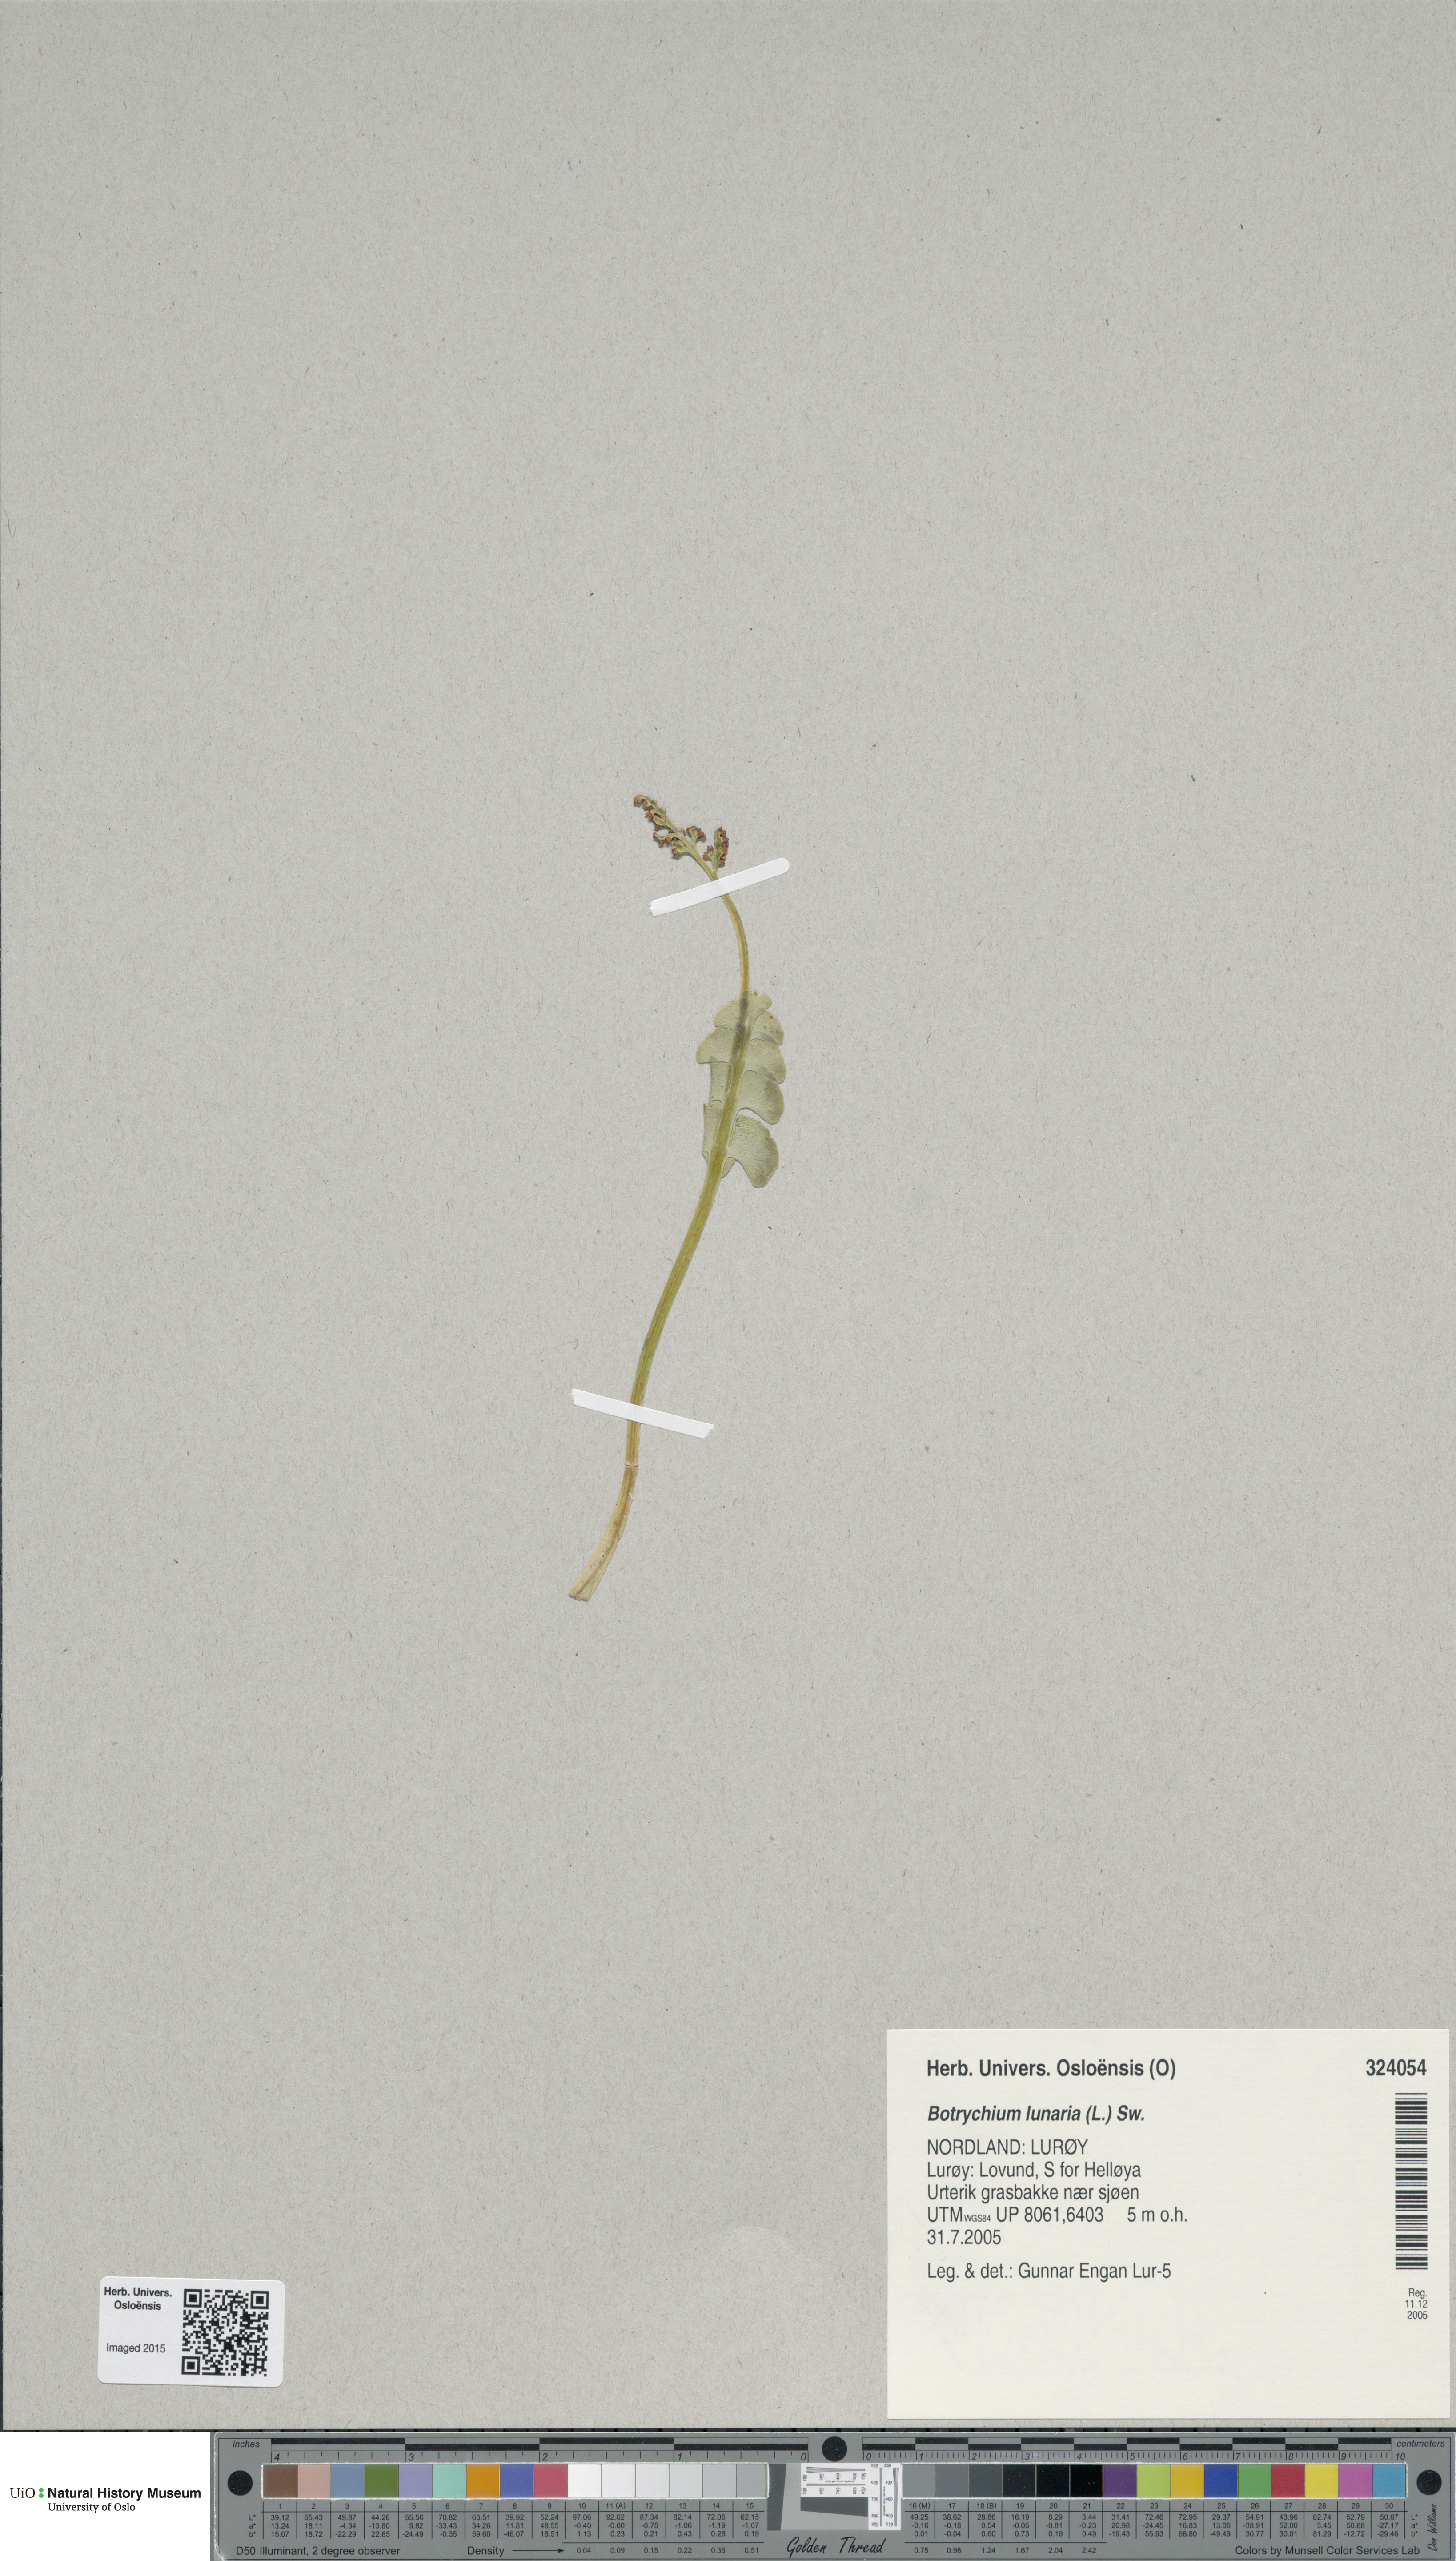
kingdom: Plantae
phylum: Tracheophyta
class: Polypodiopsida
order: Ophioglossales
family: Ophioglossaceae
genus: Botrychium
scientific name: Botrychium lunaria
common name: Moonwort
